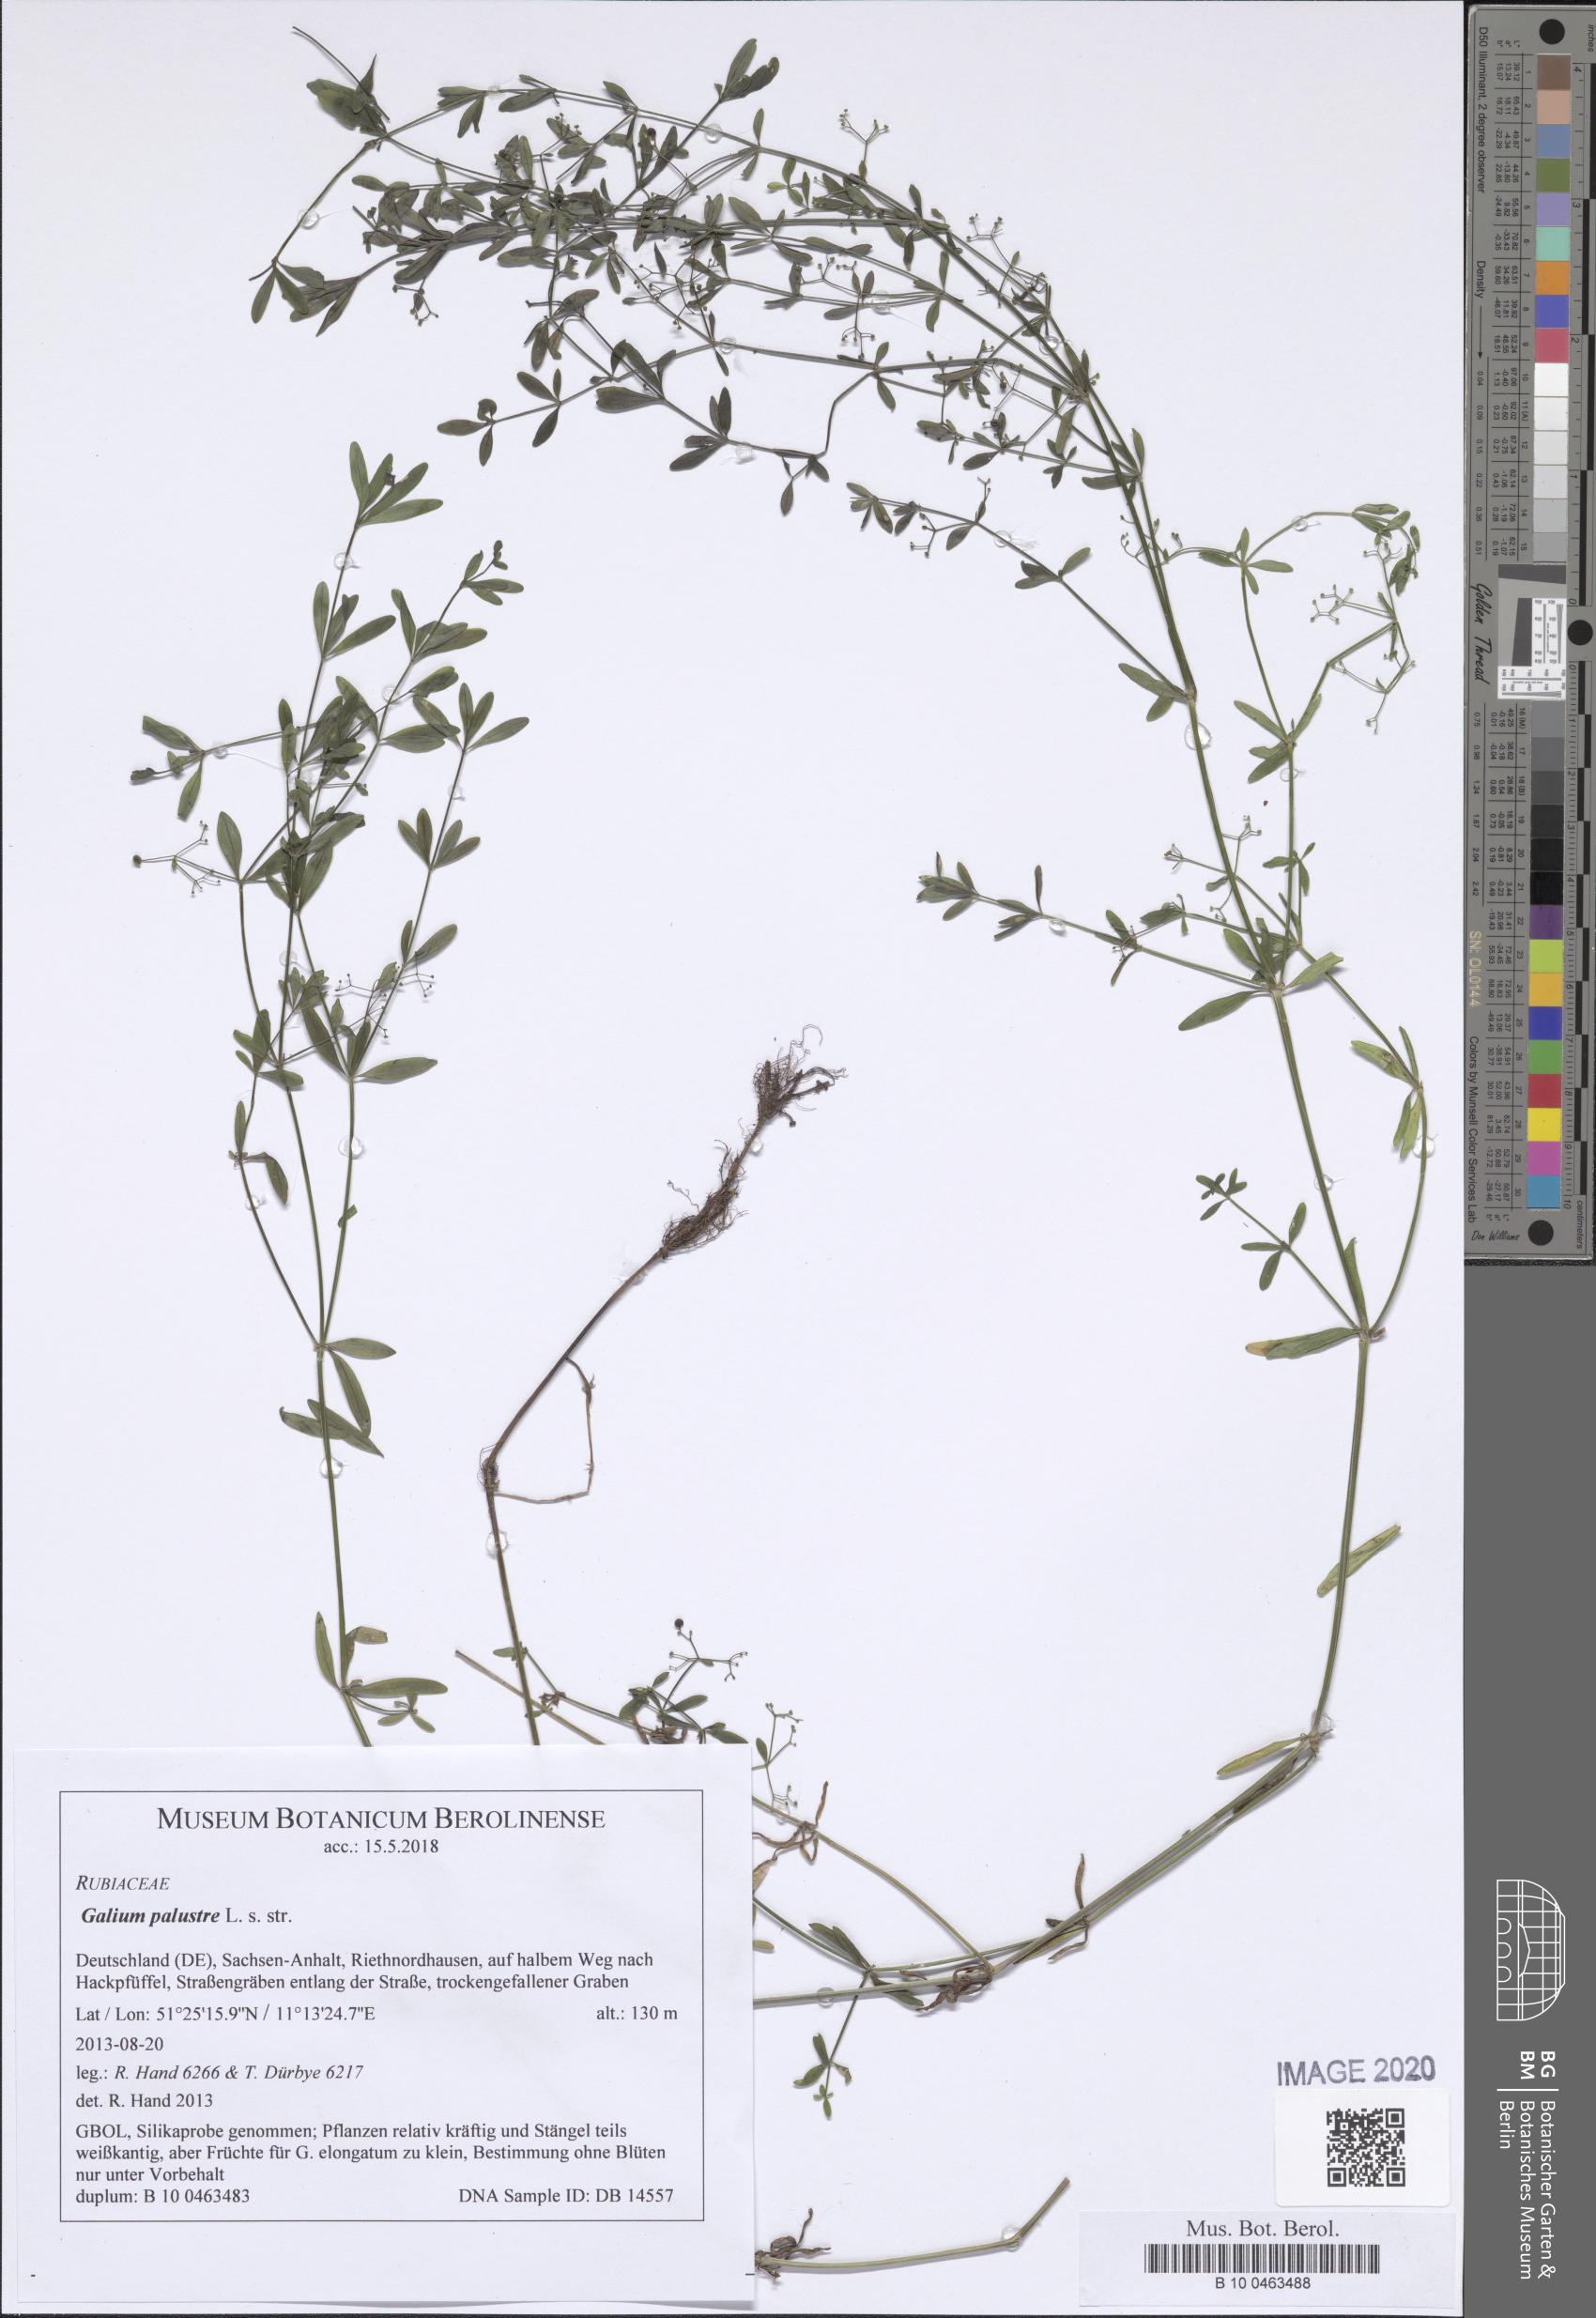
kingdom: Plantae
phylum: Tracheophyta
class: Magnoliopsida
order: Gentianales
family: Rubiaceae
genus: Galium
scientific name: Galium palustre
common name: Common marsh-bedstraw
